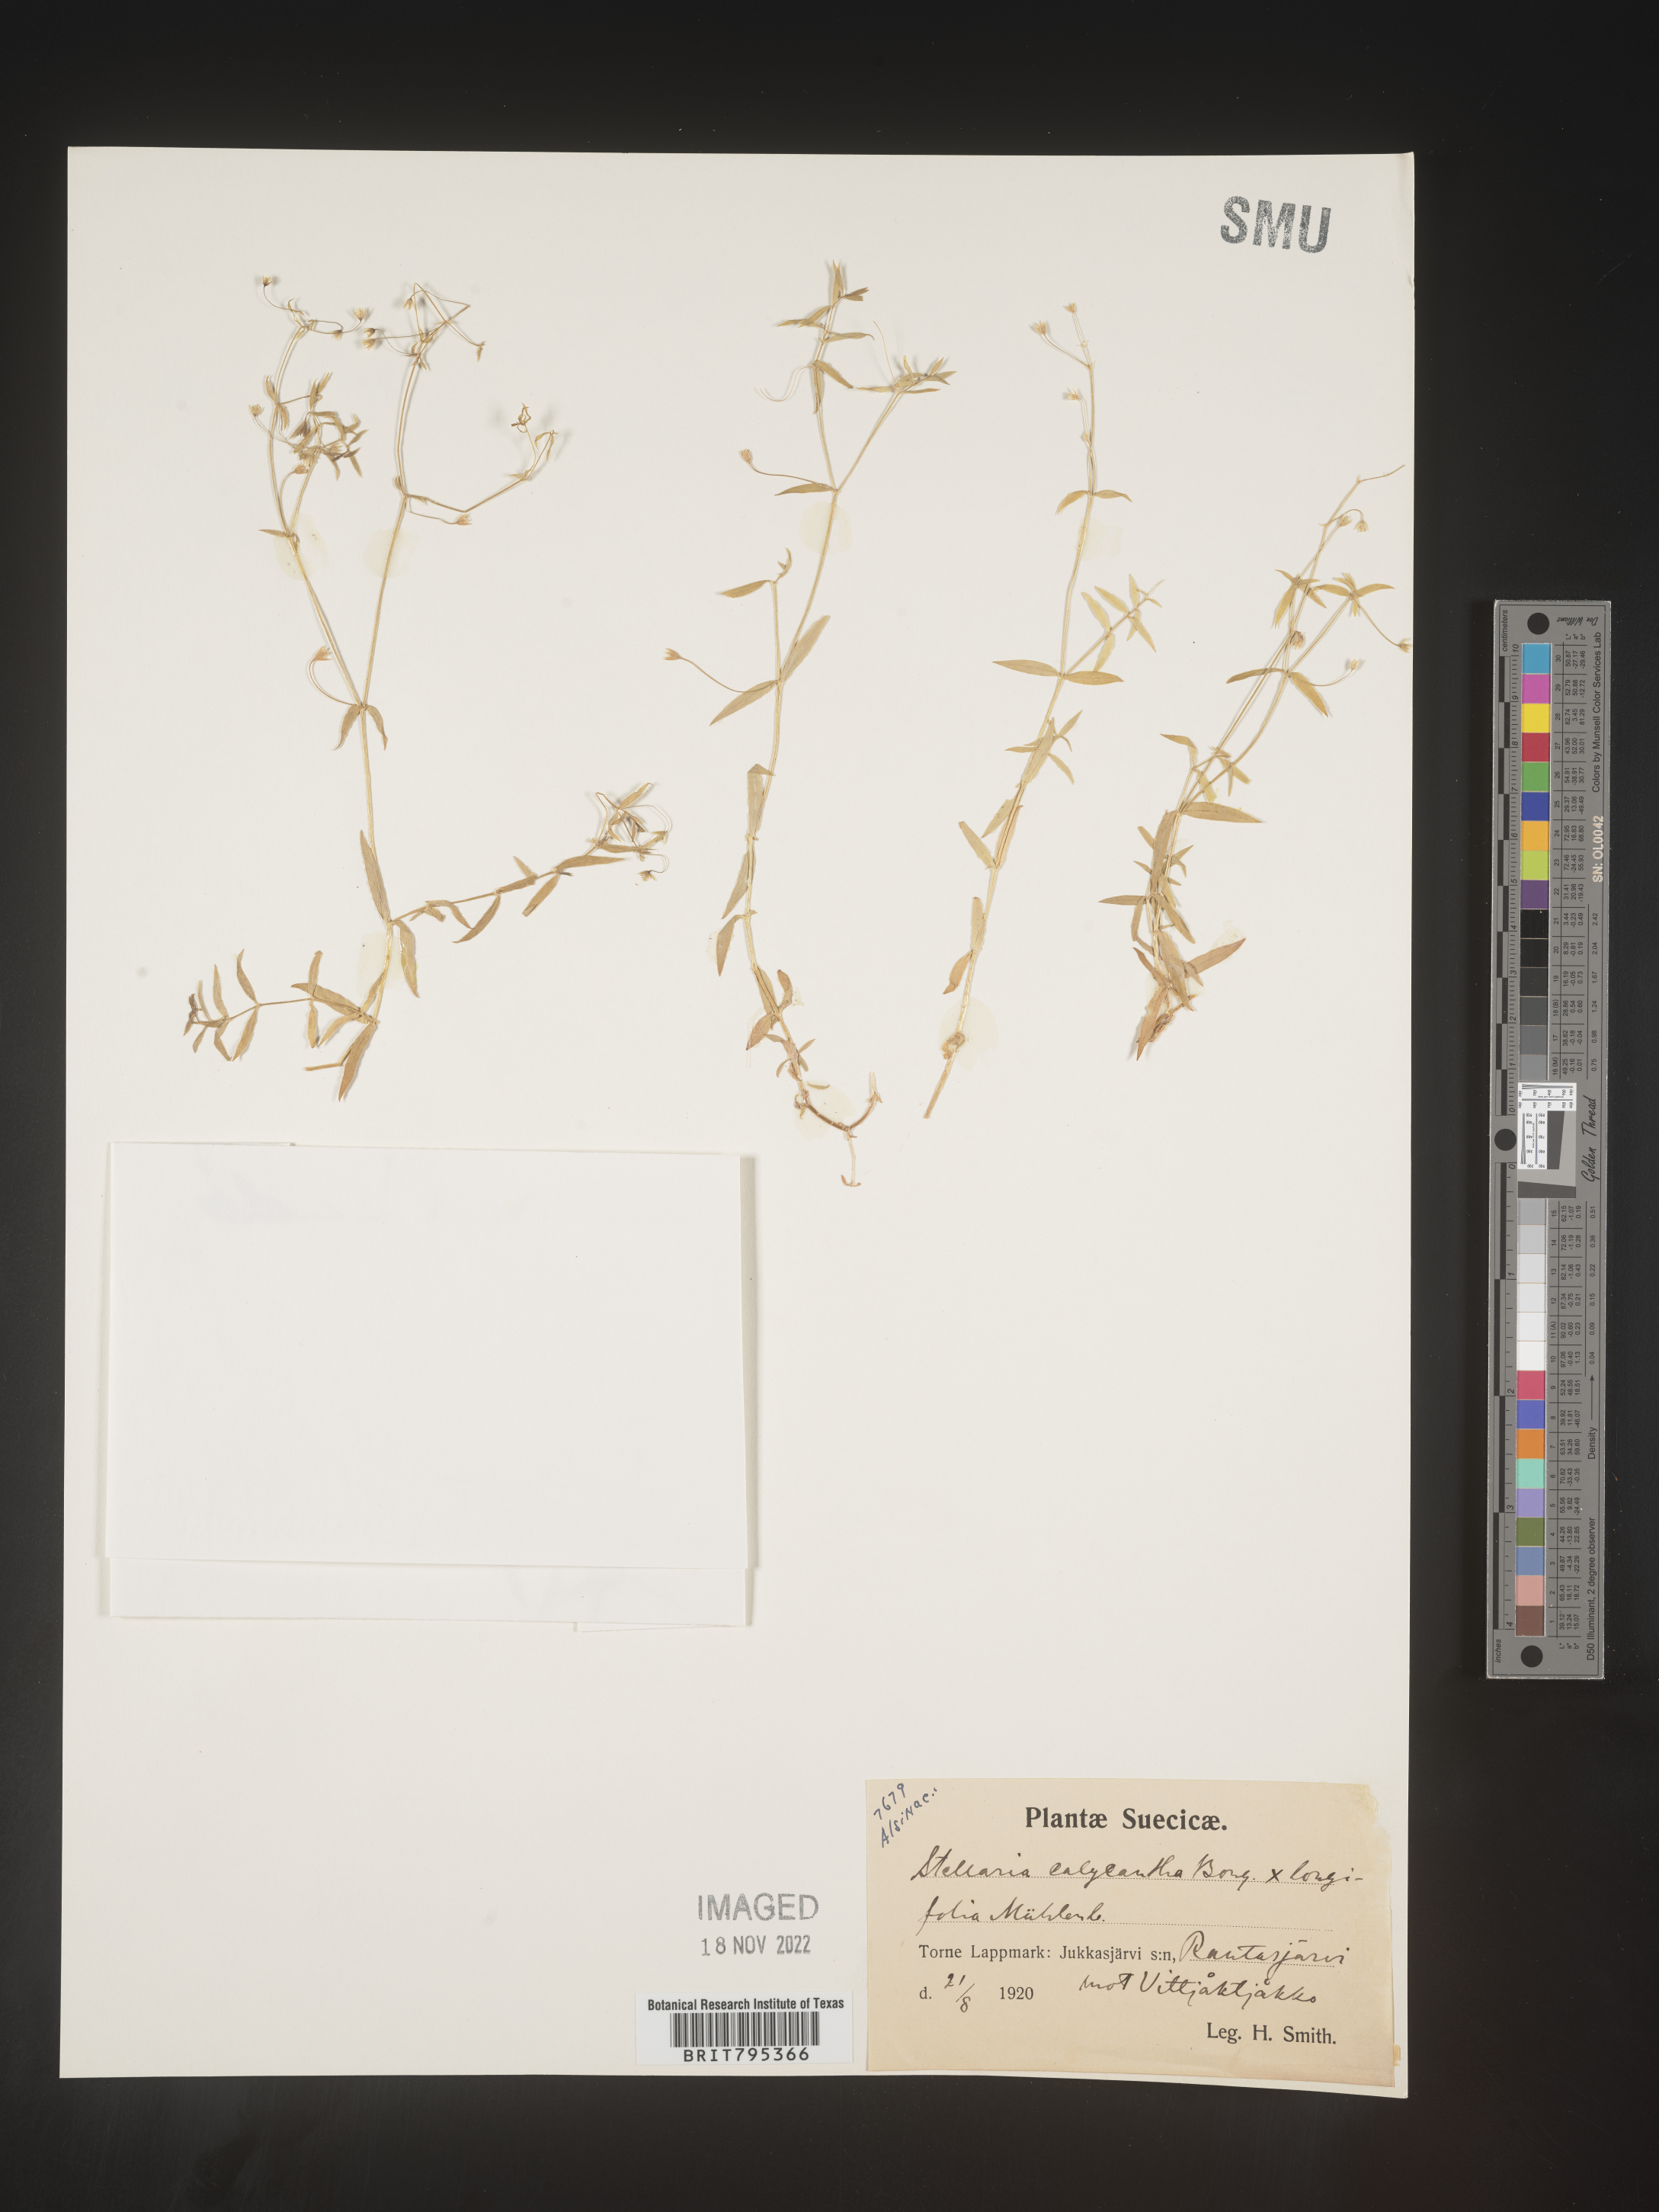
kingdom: Plantae
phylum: Tracheophyta
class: Magnoliopsida
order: Caryophyllales
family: Caryophyllaceae
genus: Stellaria
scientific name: Stellaria
